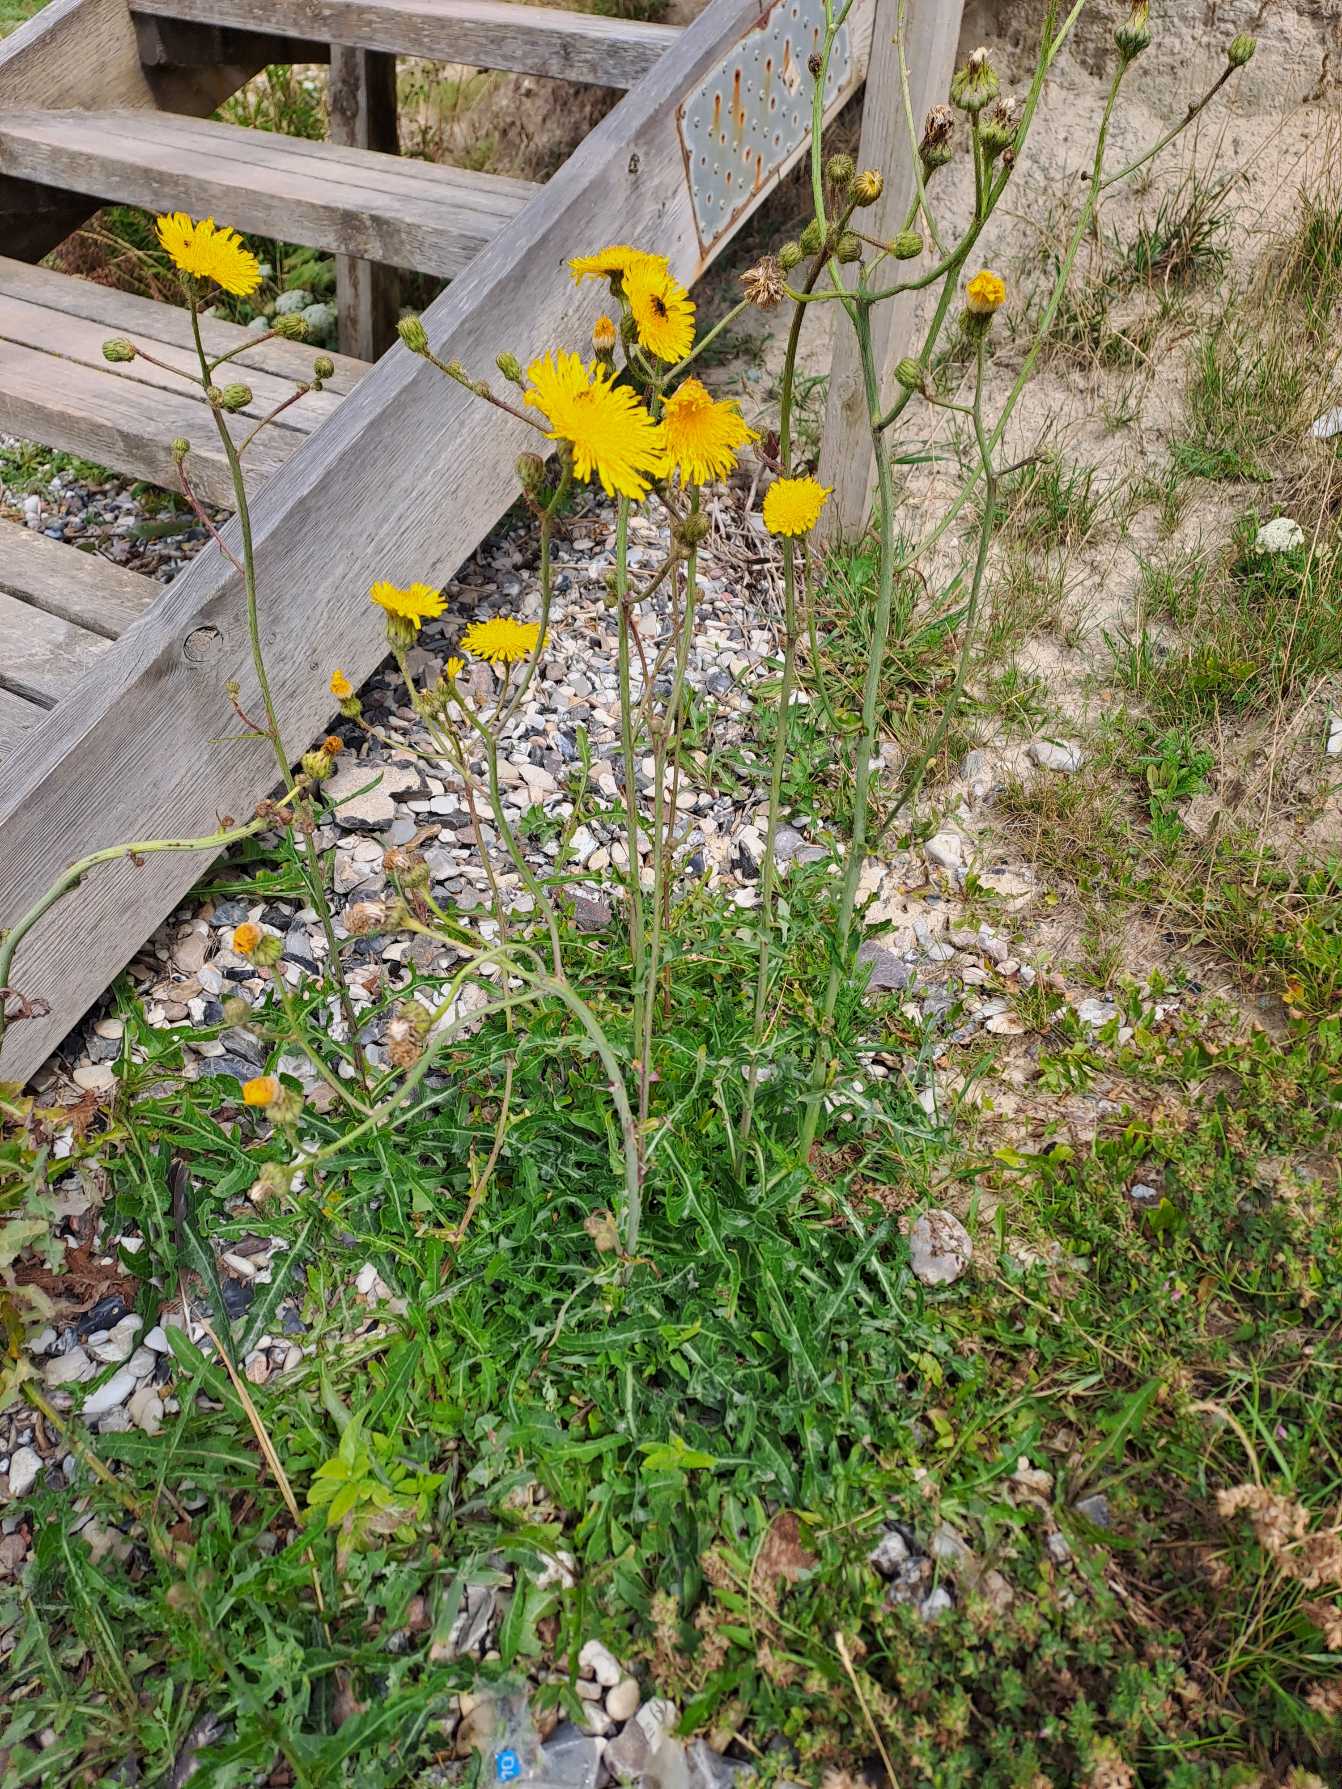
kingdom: Plantae
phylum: Tracheophyta
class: Magnoliopsida
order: Asterales
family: Asteraceae
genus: Sonchus
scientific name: Sonchus arvensis
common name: Ager-svinemælk
